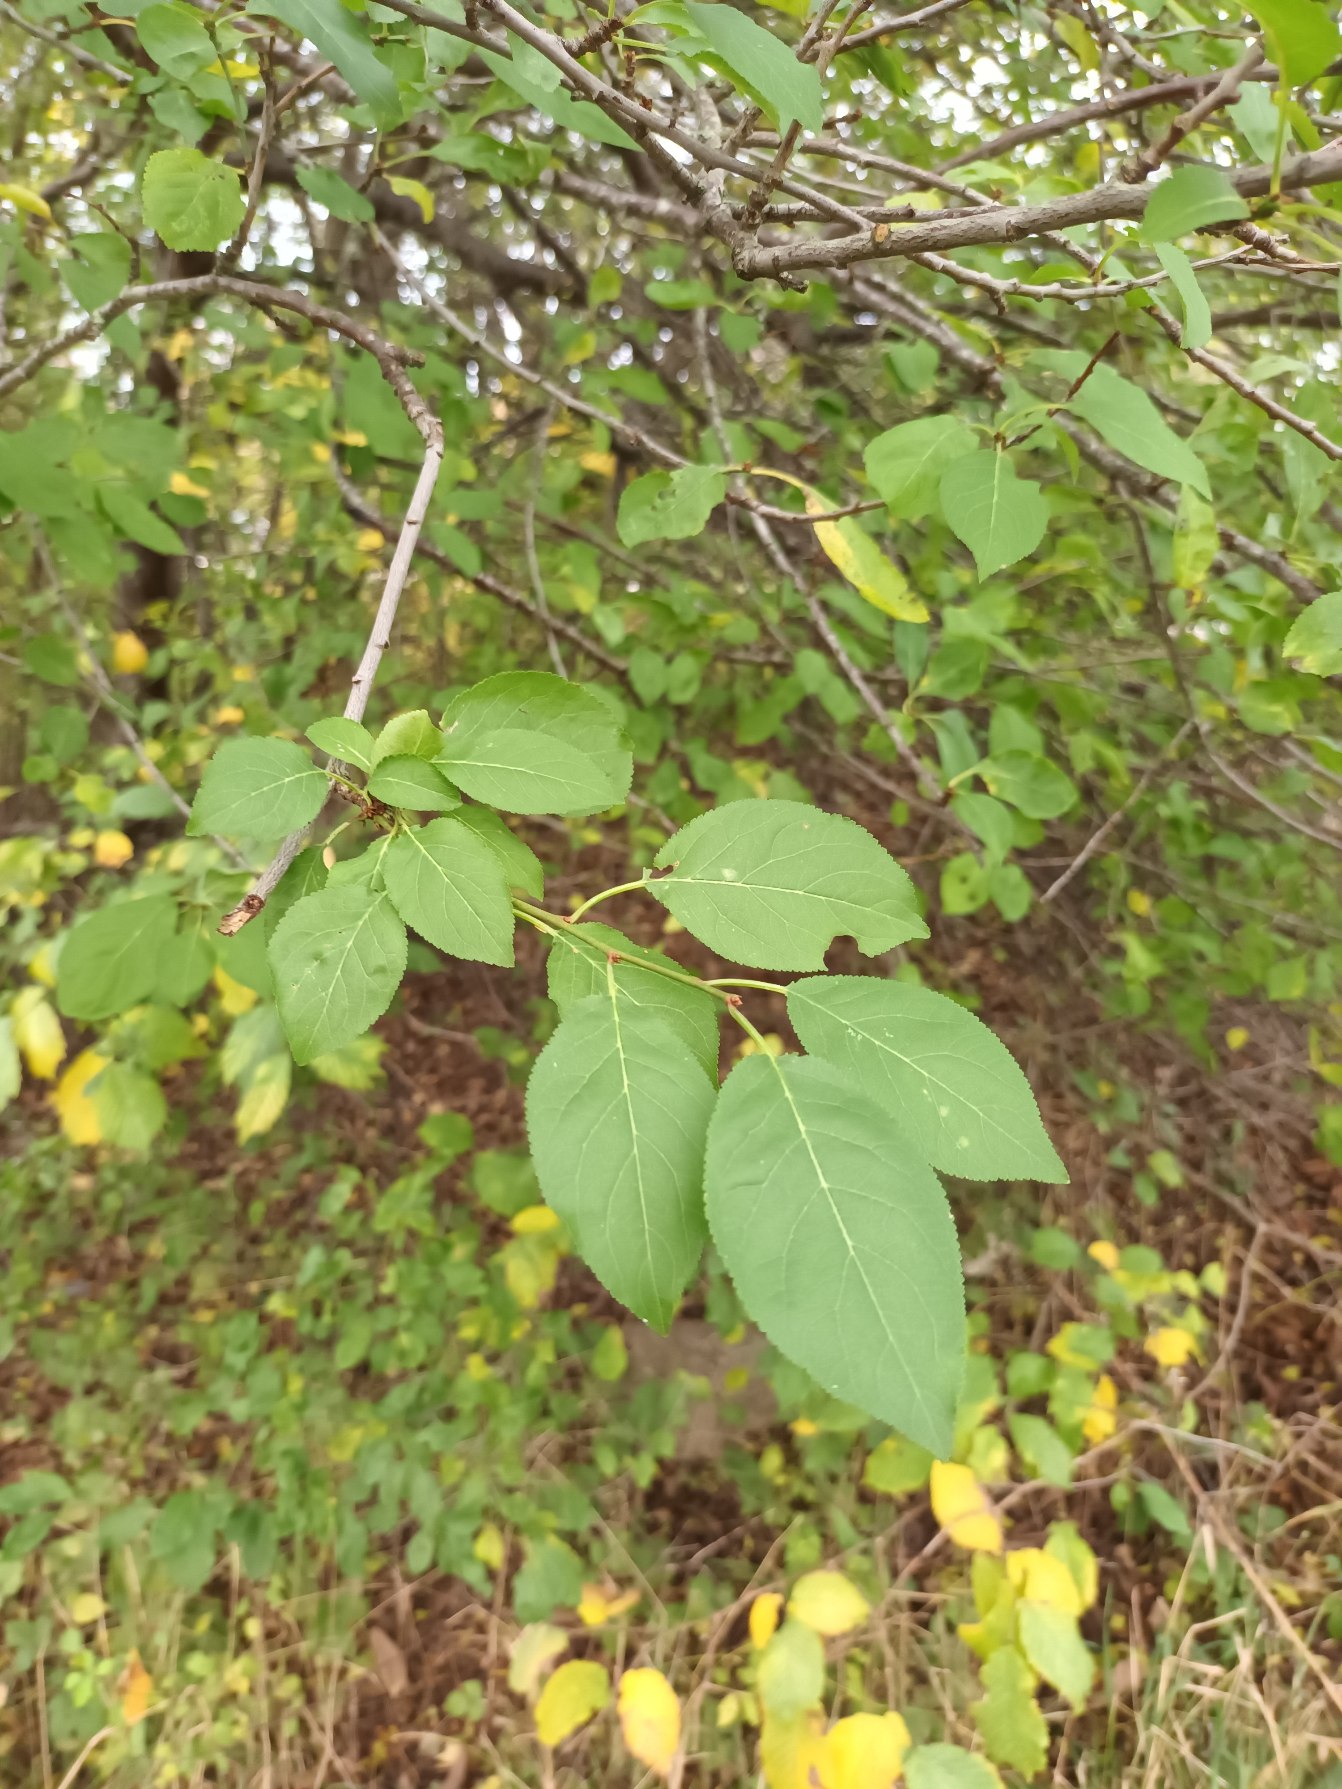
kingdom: Plantae
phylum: Tracheophyta
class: Magnoliopsida
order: Rosales
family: Rosaceae
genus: Prunus
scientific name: Prunus cerasifera
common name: Mirabel
